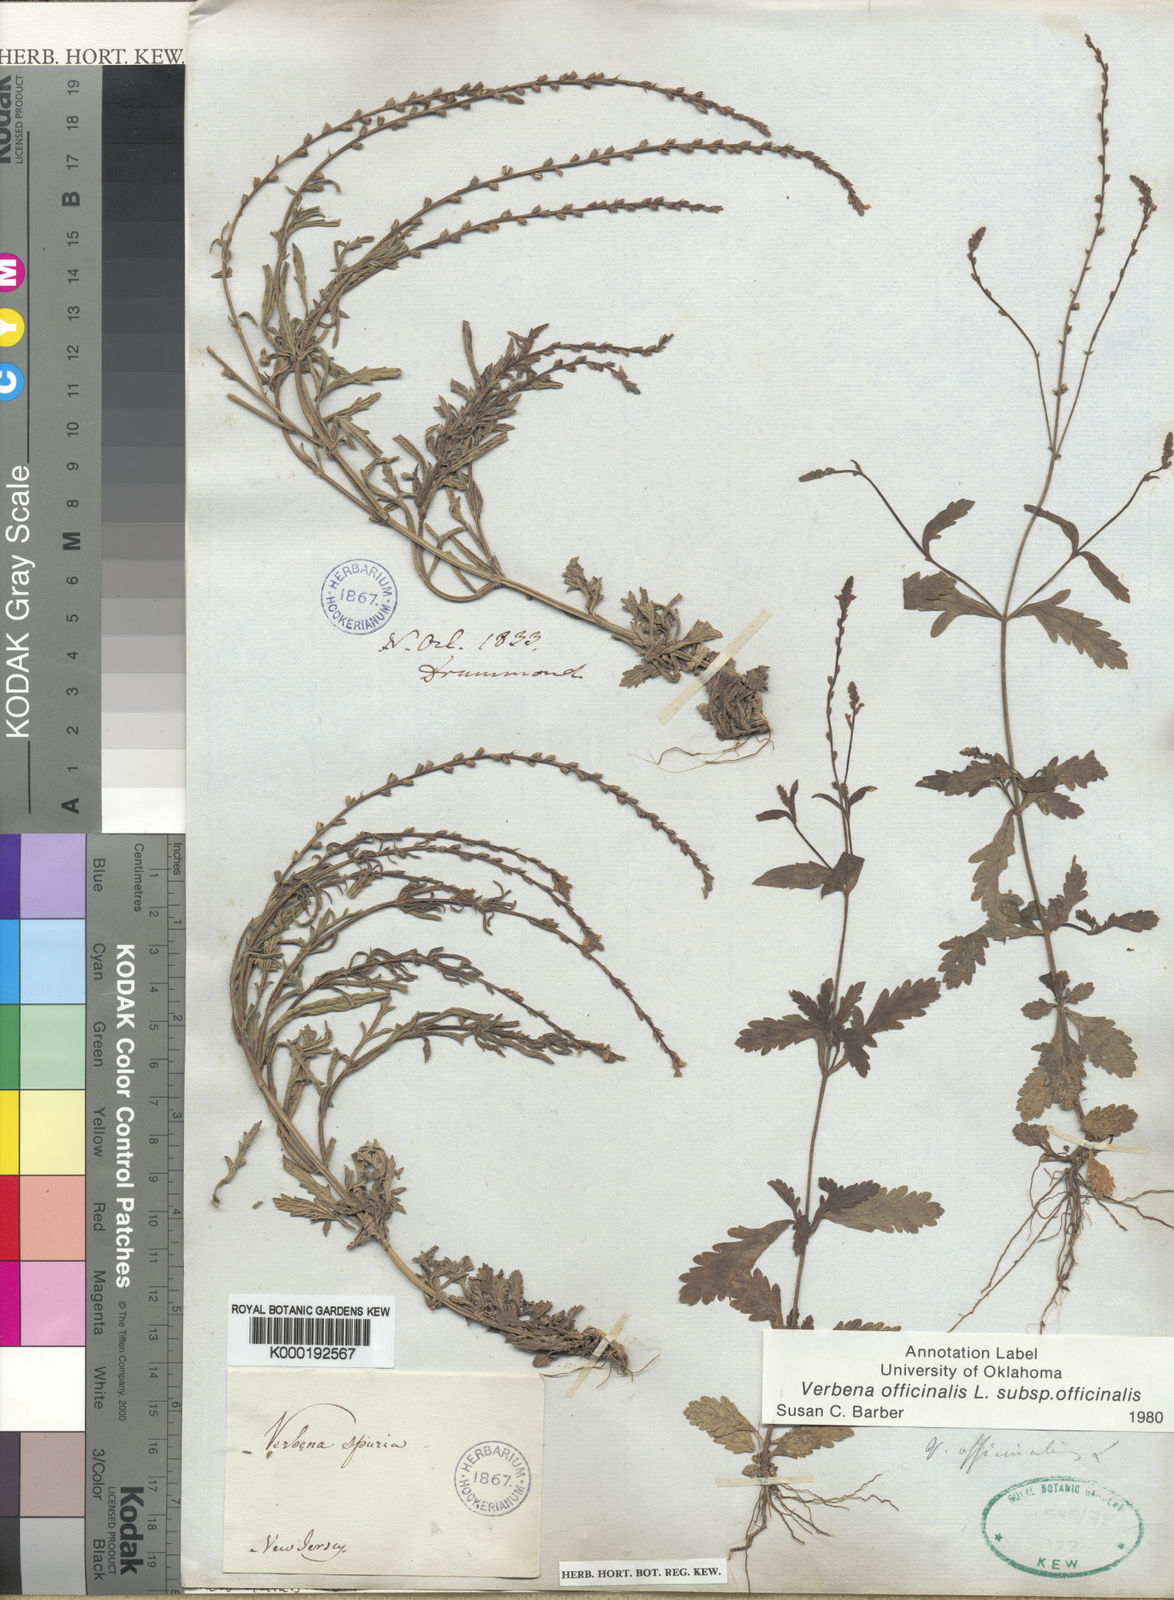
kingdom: Plantae
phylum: Tracheophyta
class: Magnoliopsida
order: Lamiales
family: Verbenaceae
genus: Verbena
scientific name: Verbena officinalis
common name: Vervain
